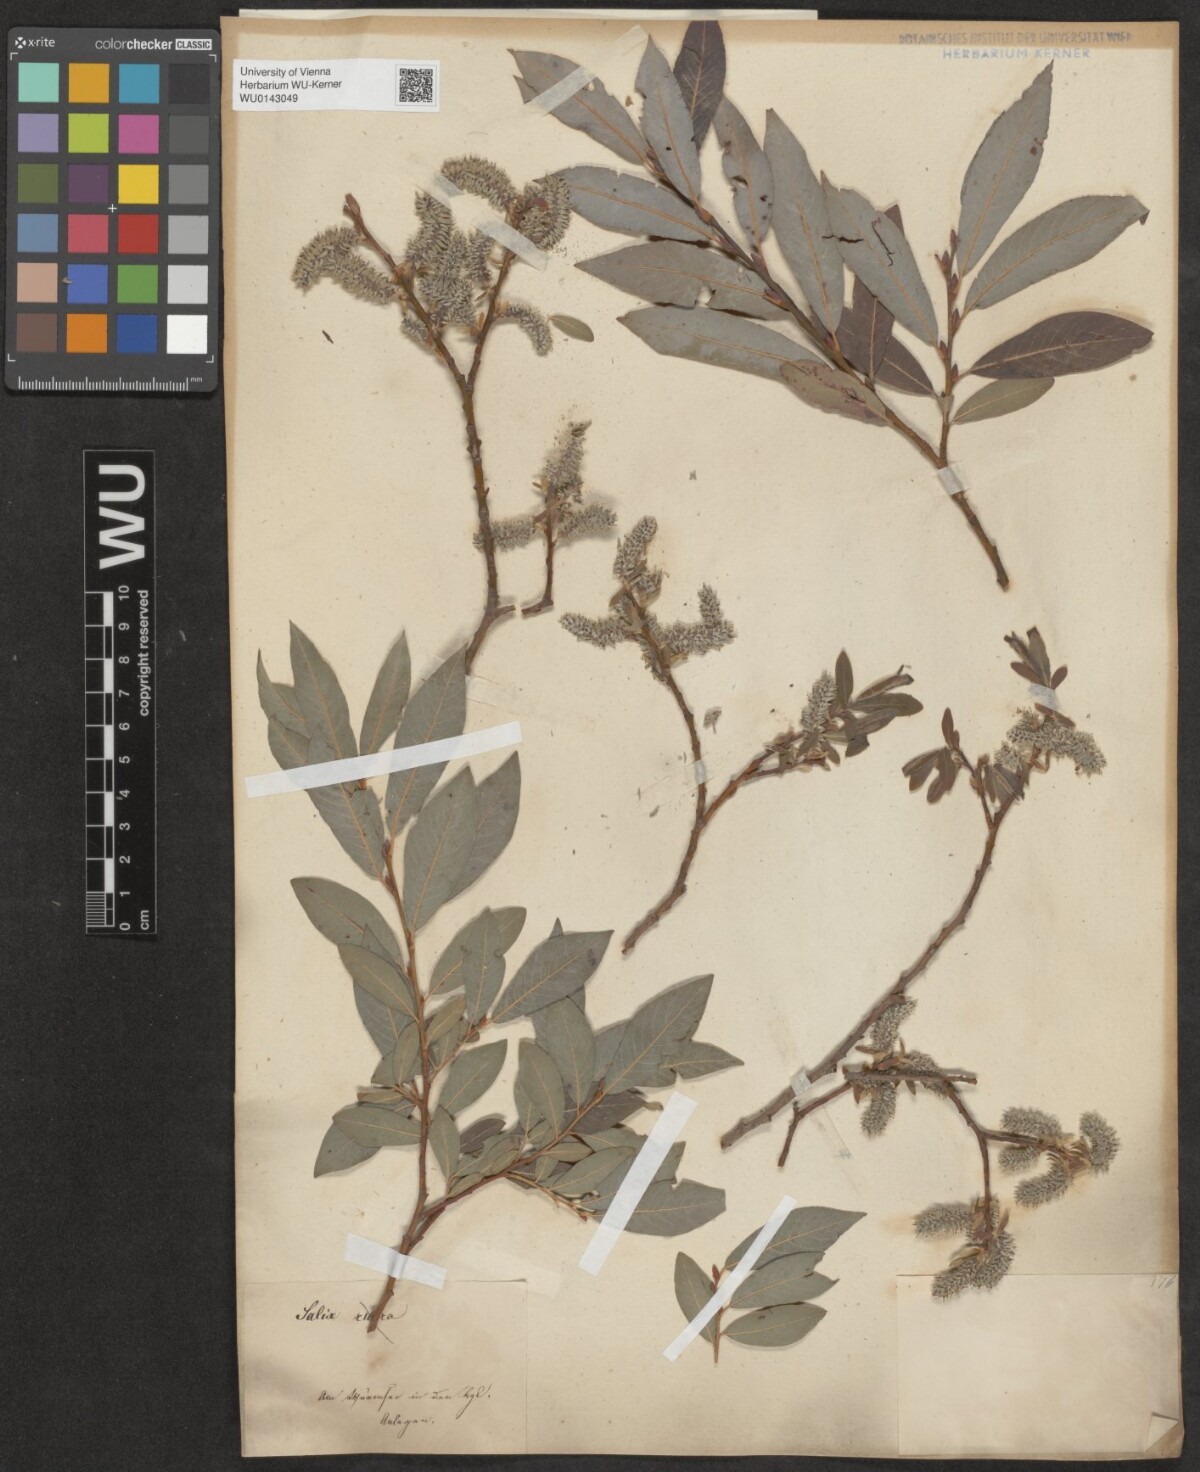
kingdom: Plantae
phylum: Tracheophyta
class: Magnoliopsida
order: Malpighiales
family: Salicaceae
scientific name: Salicaceae
